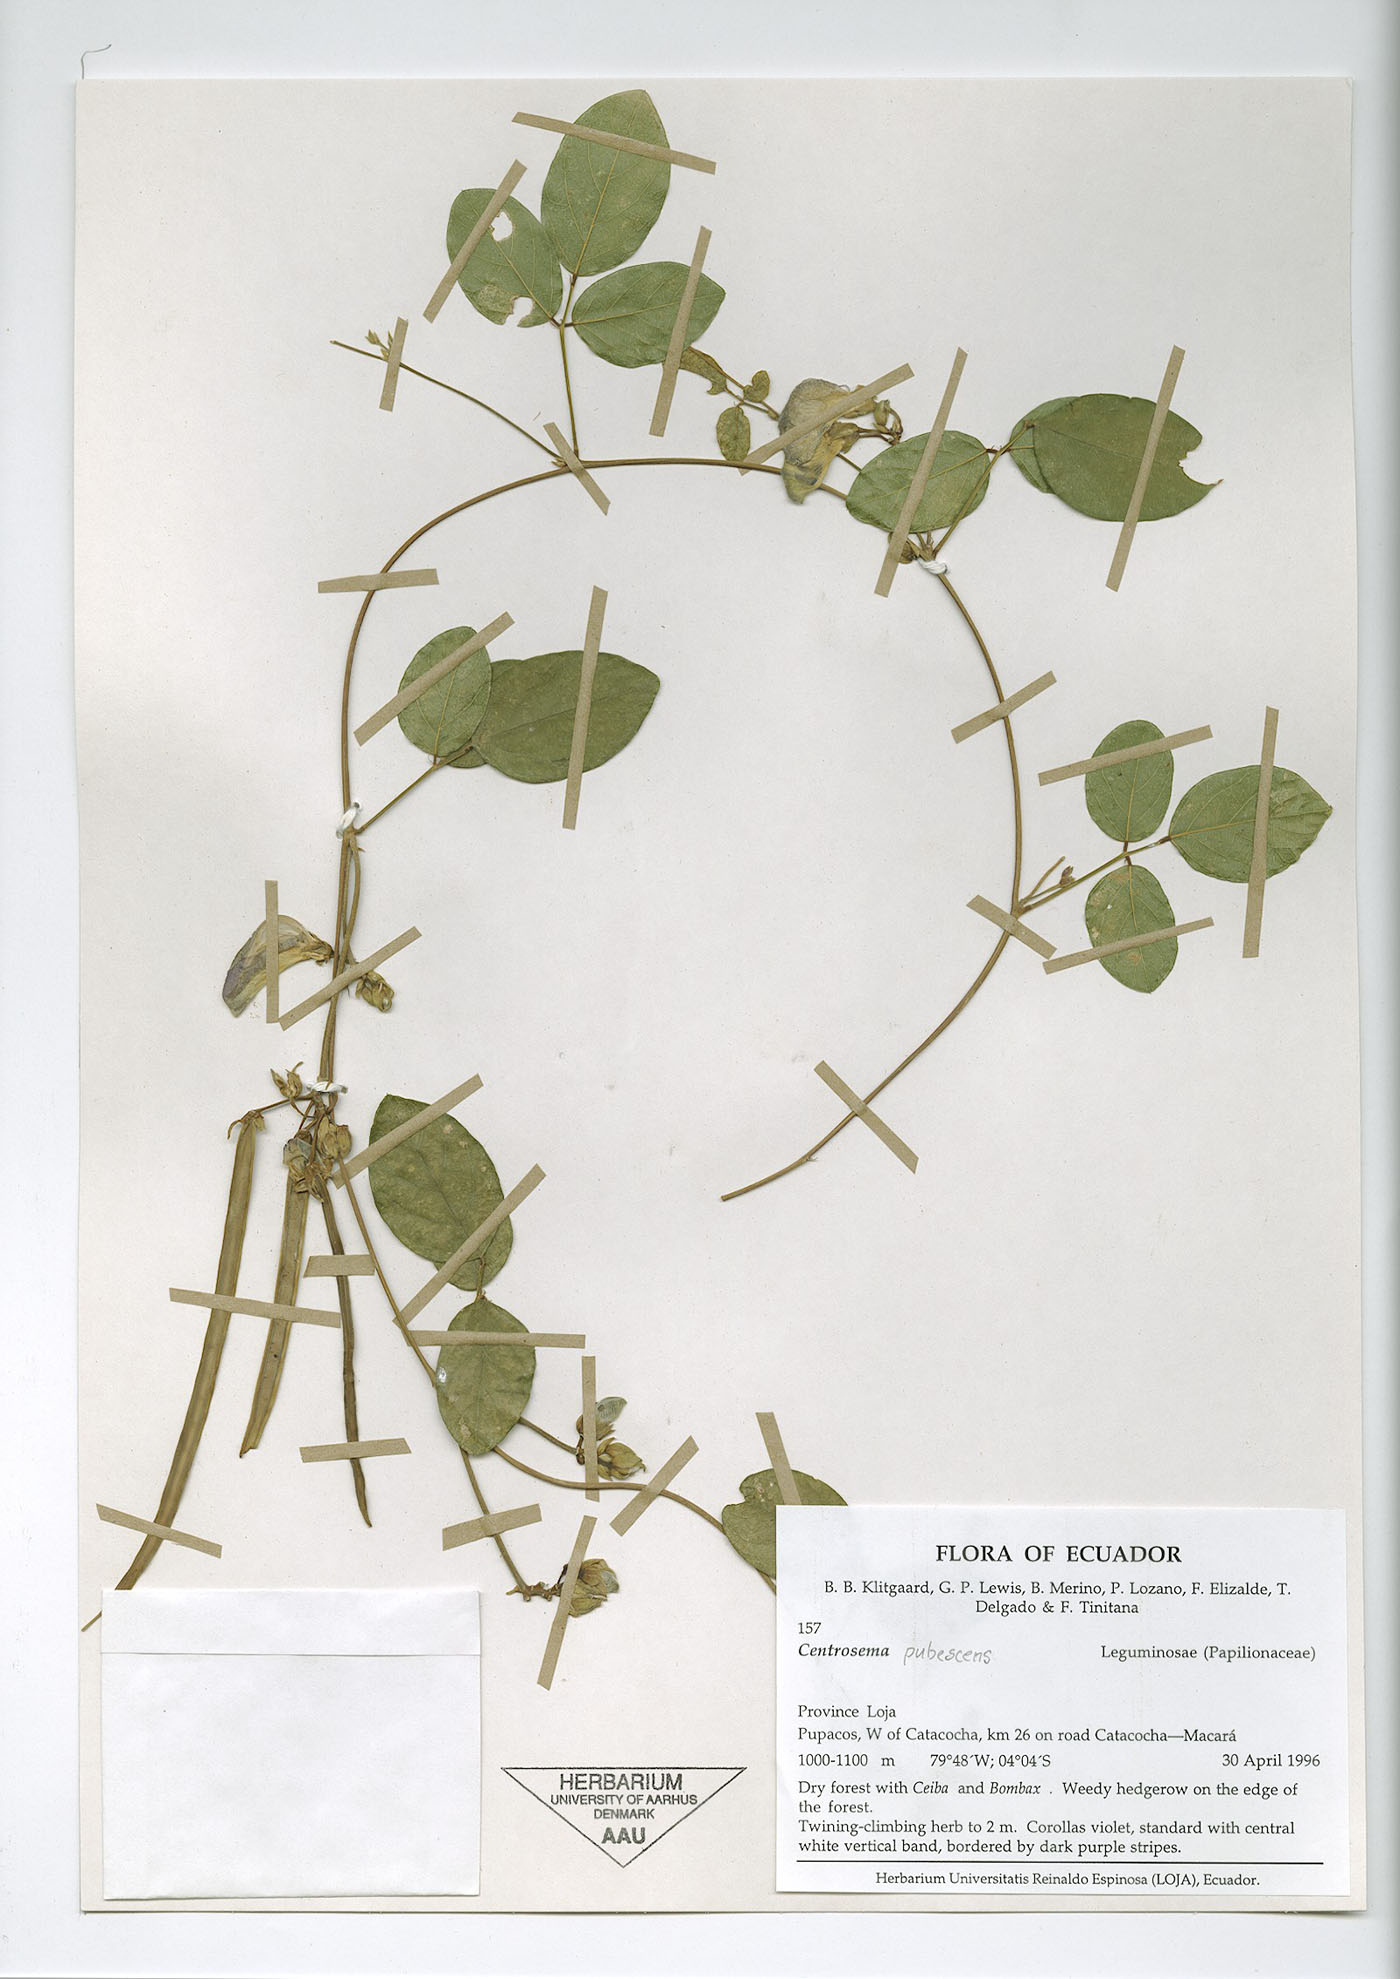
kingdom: Plantae
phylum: Tracheophyta
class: Magnoliopsida
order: Fabales
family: Fabaceae
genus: Centrosema
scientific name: Centrosema molle
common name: Soft butterfly pea
